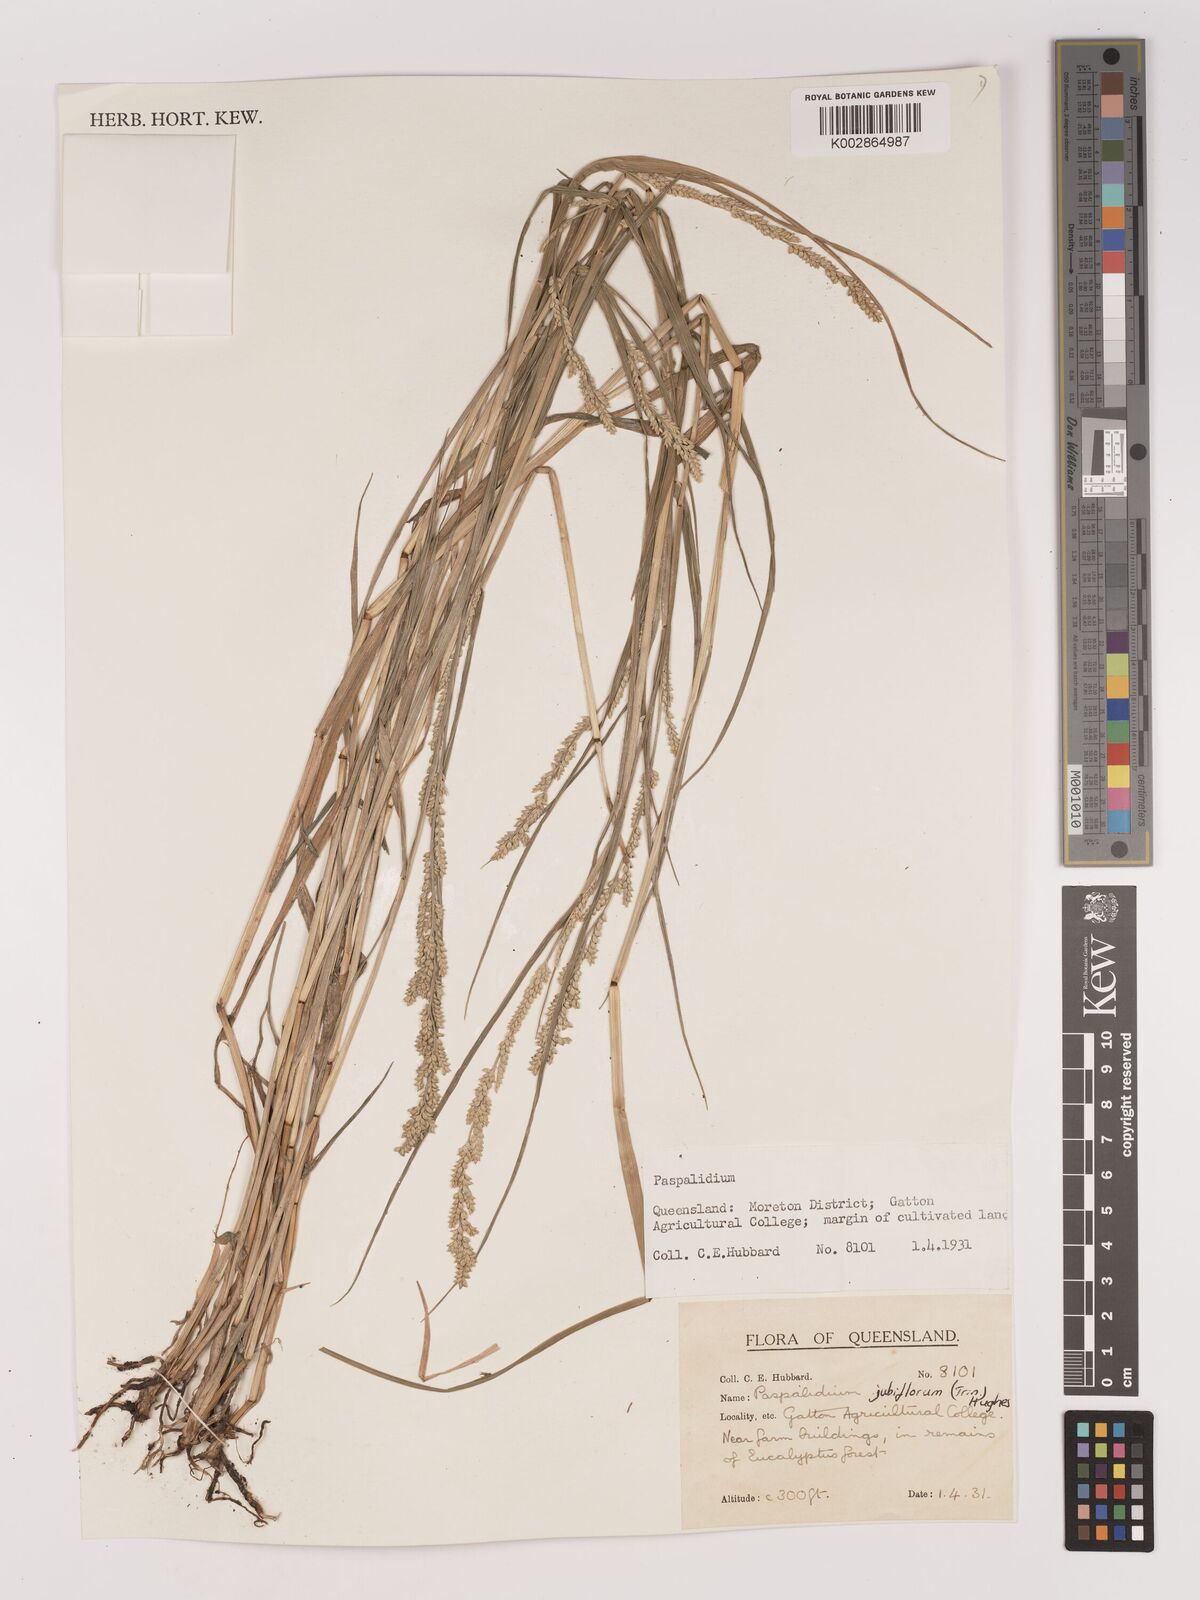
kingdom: Plantae
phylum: Tracheophyta
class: Liliopsida
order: Poales
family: Poaceae
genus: Setaria
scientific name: Setaria
